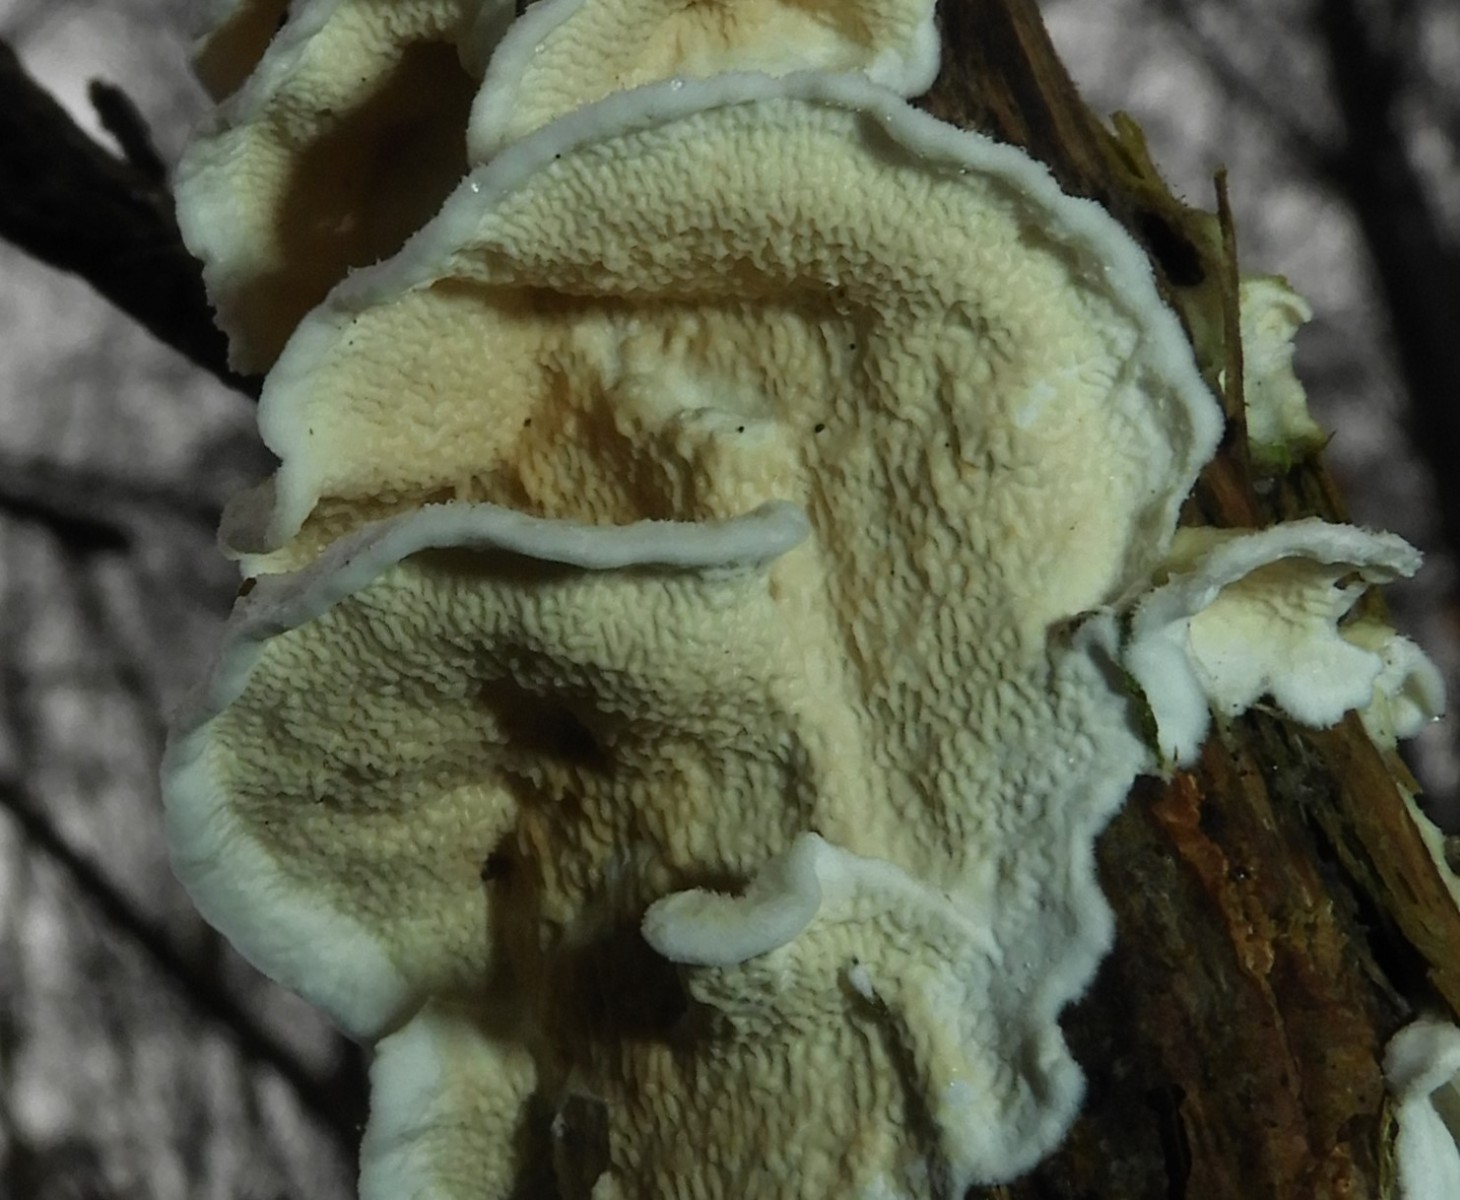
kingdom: Fungi
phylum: Basidiomycota
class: Agaricomycetes
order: Polyporales
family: Irpicaceae
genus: Byssomerulius
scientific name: Byssomerulius corium
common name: læder-åresvamp
